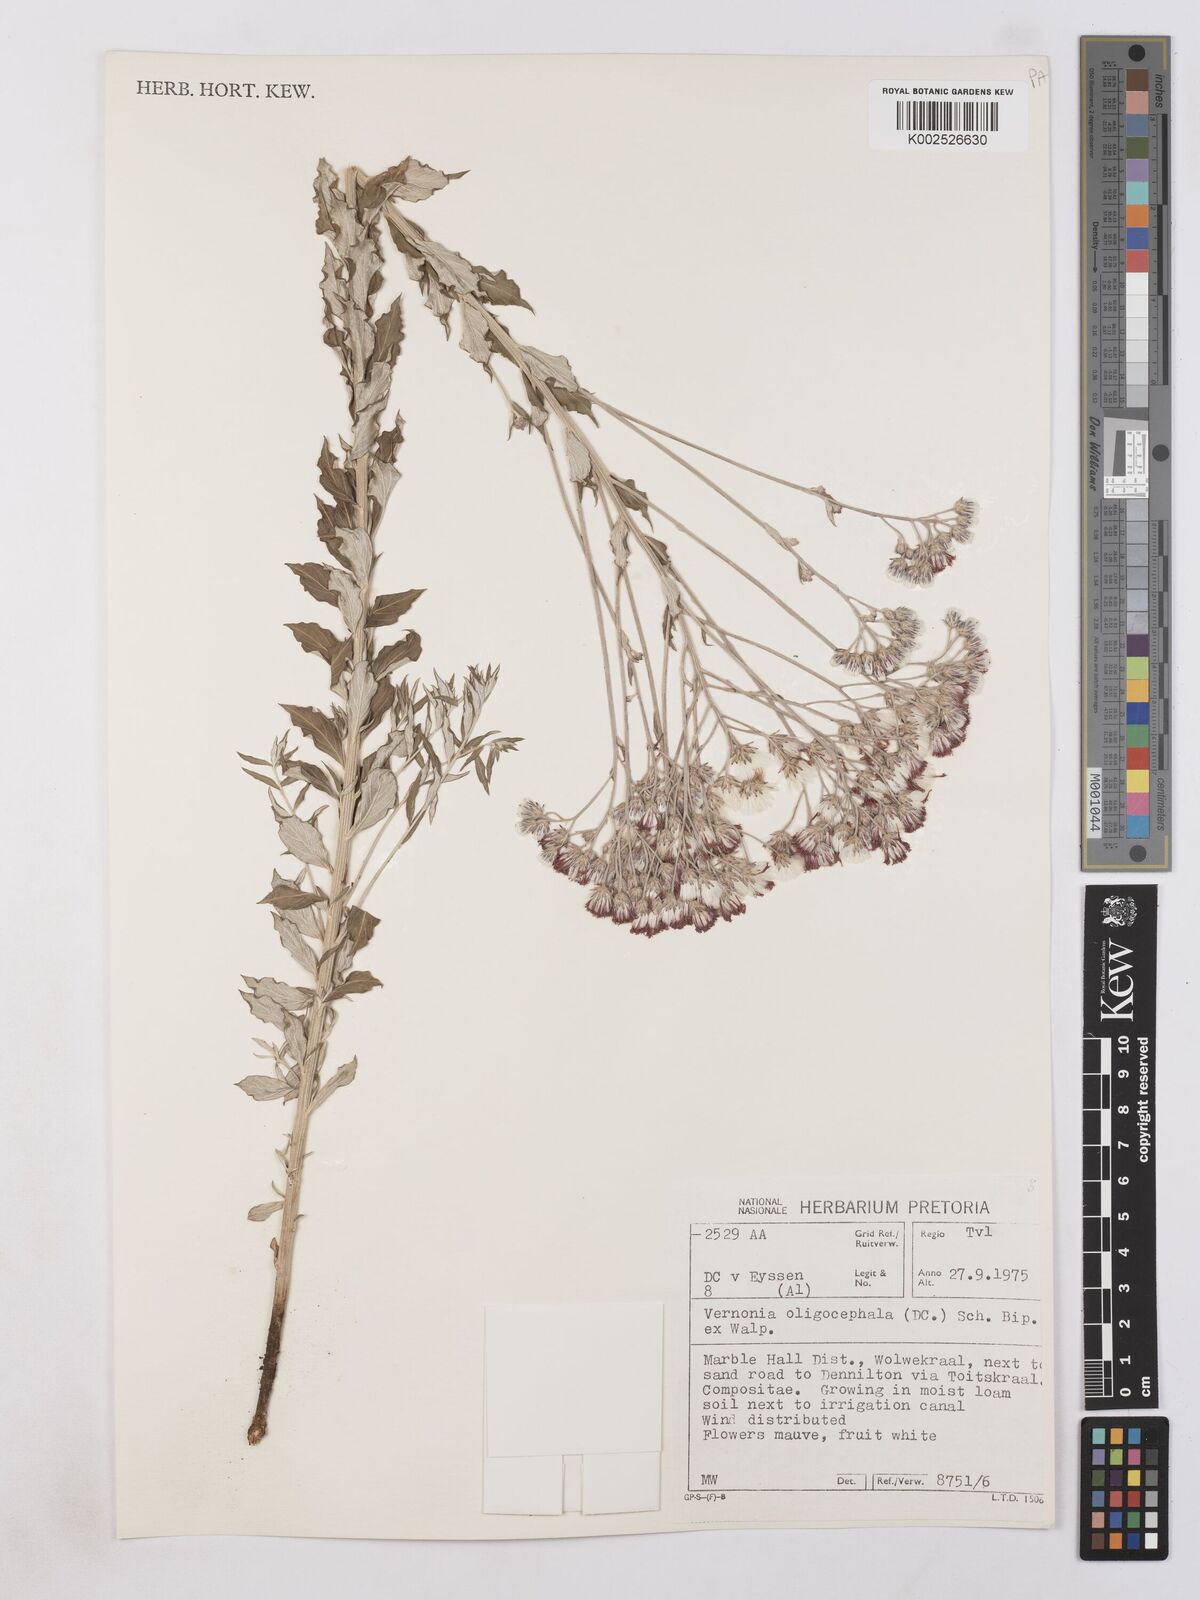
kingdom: Plantae
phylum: Tracheophyta
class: Magnoliopsida
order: Asterales
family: Asteraceae
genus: Hilliardiella
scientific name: Hilliardiella oligocephala
